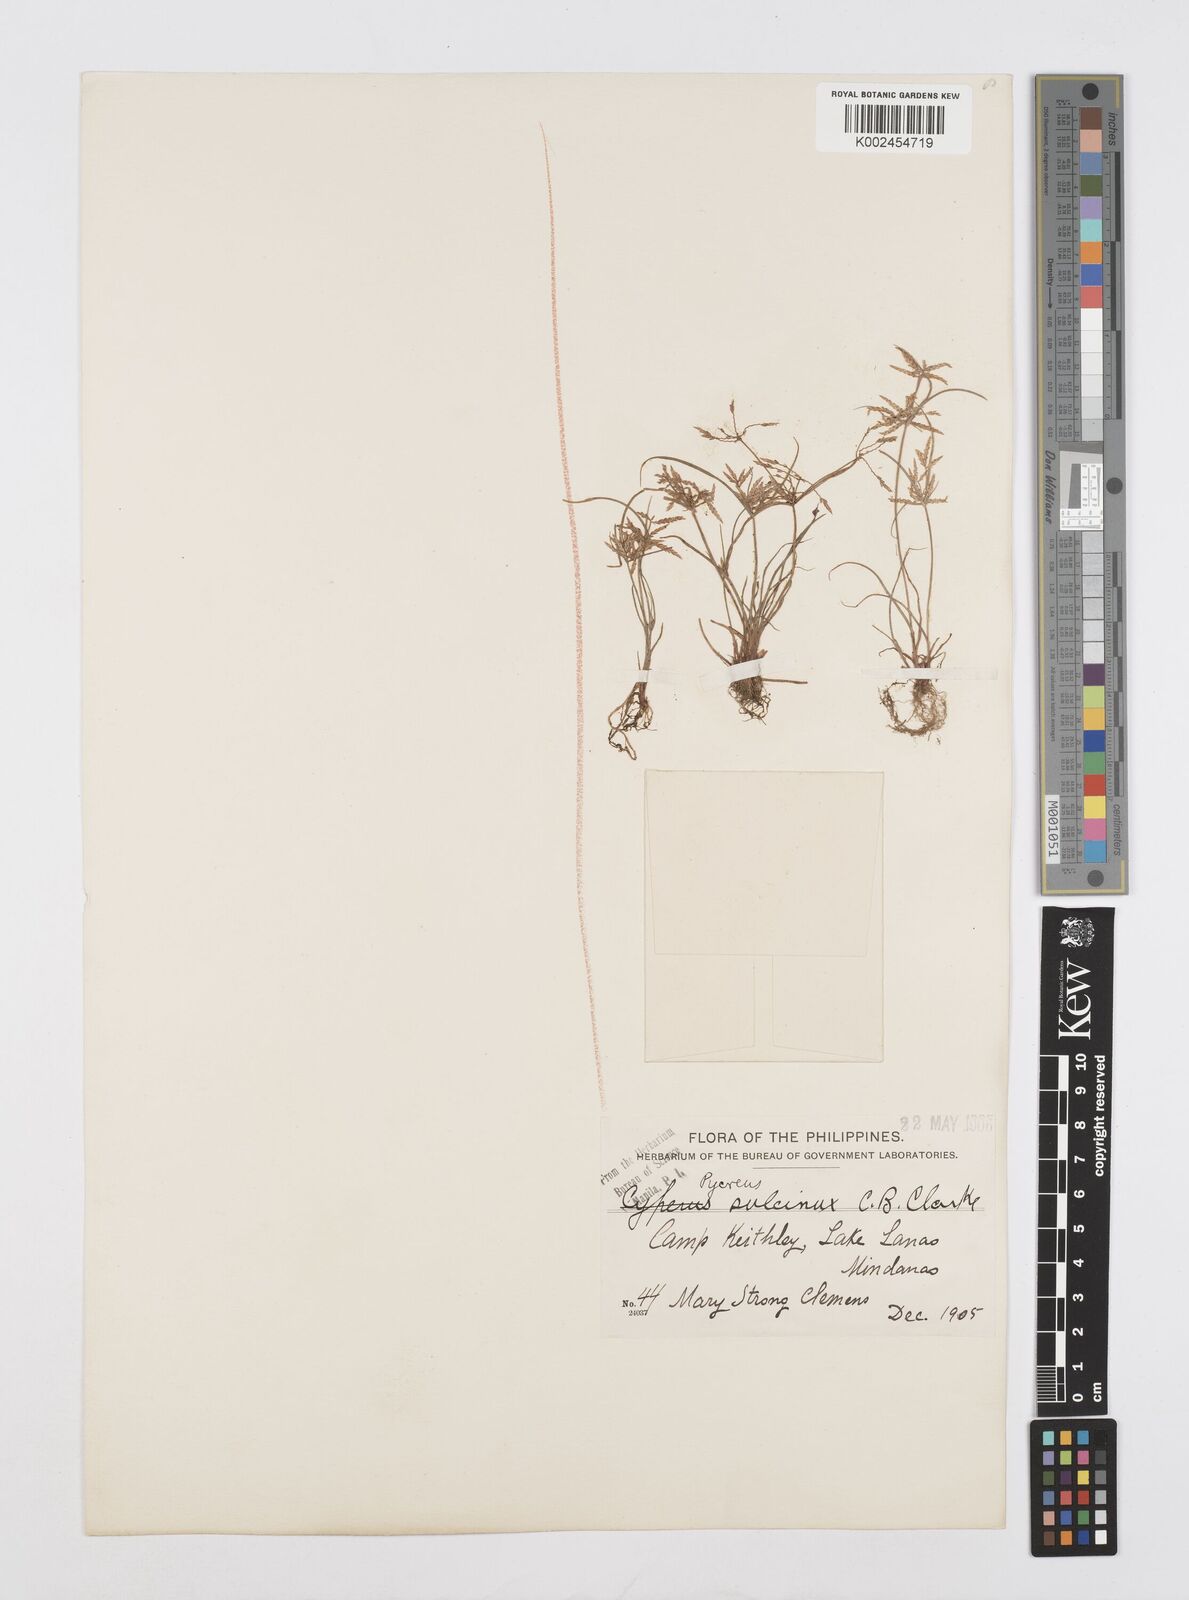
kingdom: Plantae
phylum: Tracheophyta
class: Liliopsida
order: Poales
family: Cyperaceae
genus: Cyperus
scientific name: Cyperus sulcinux
